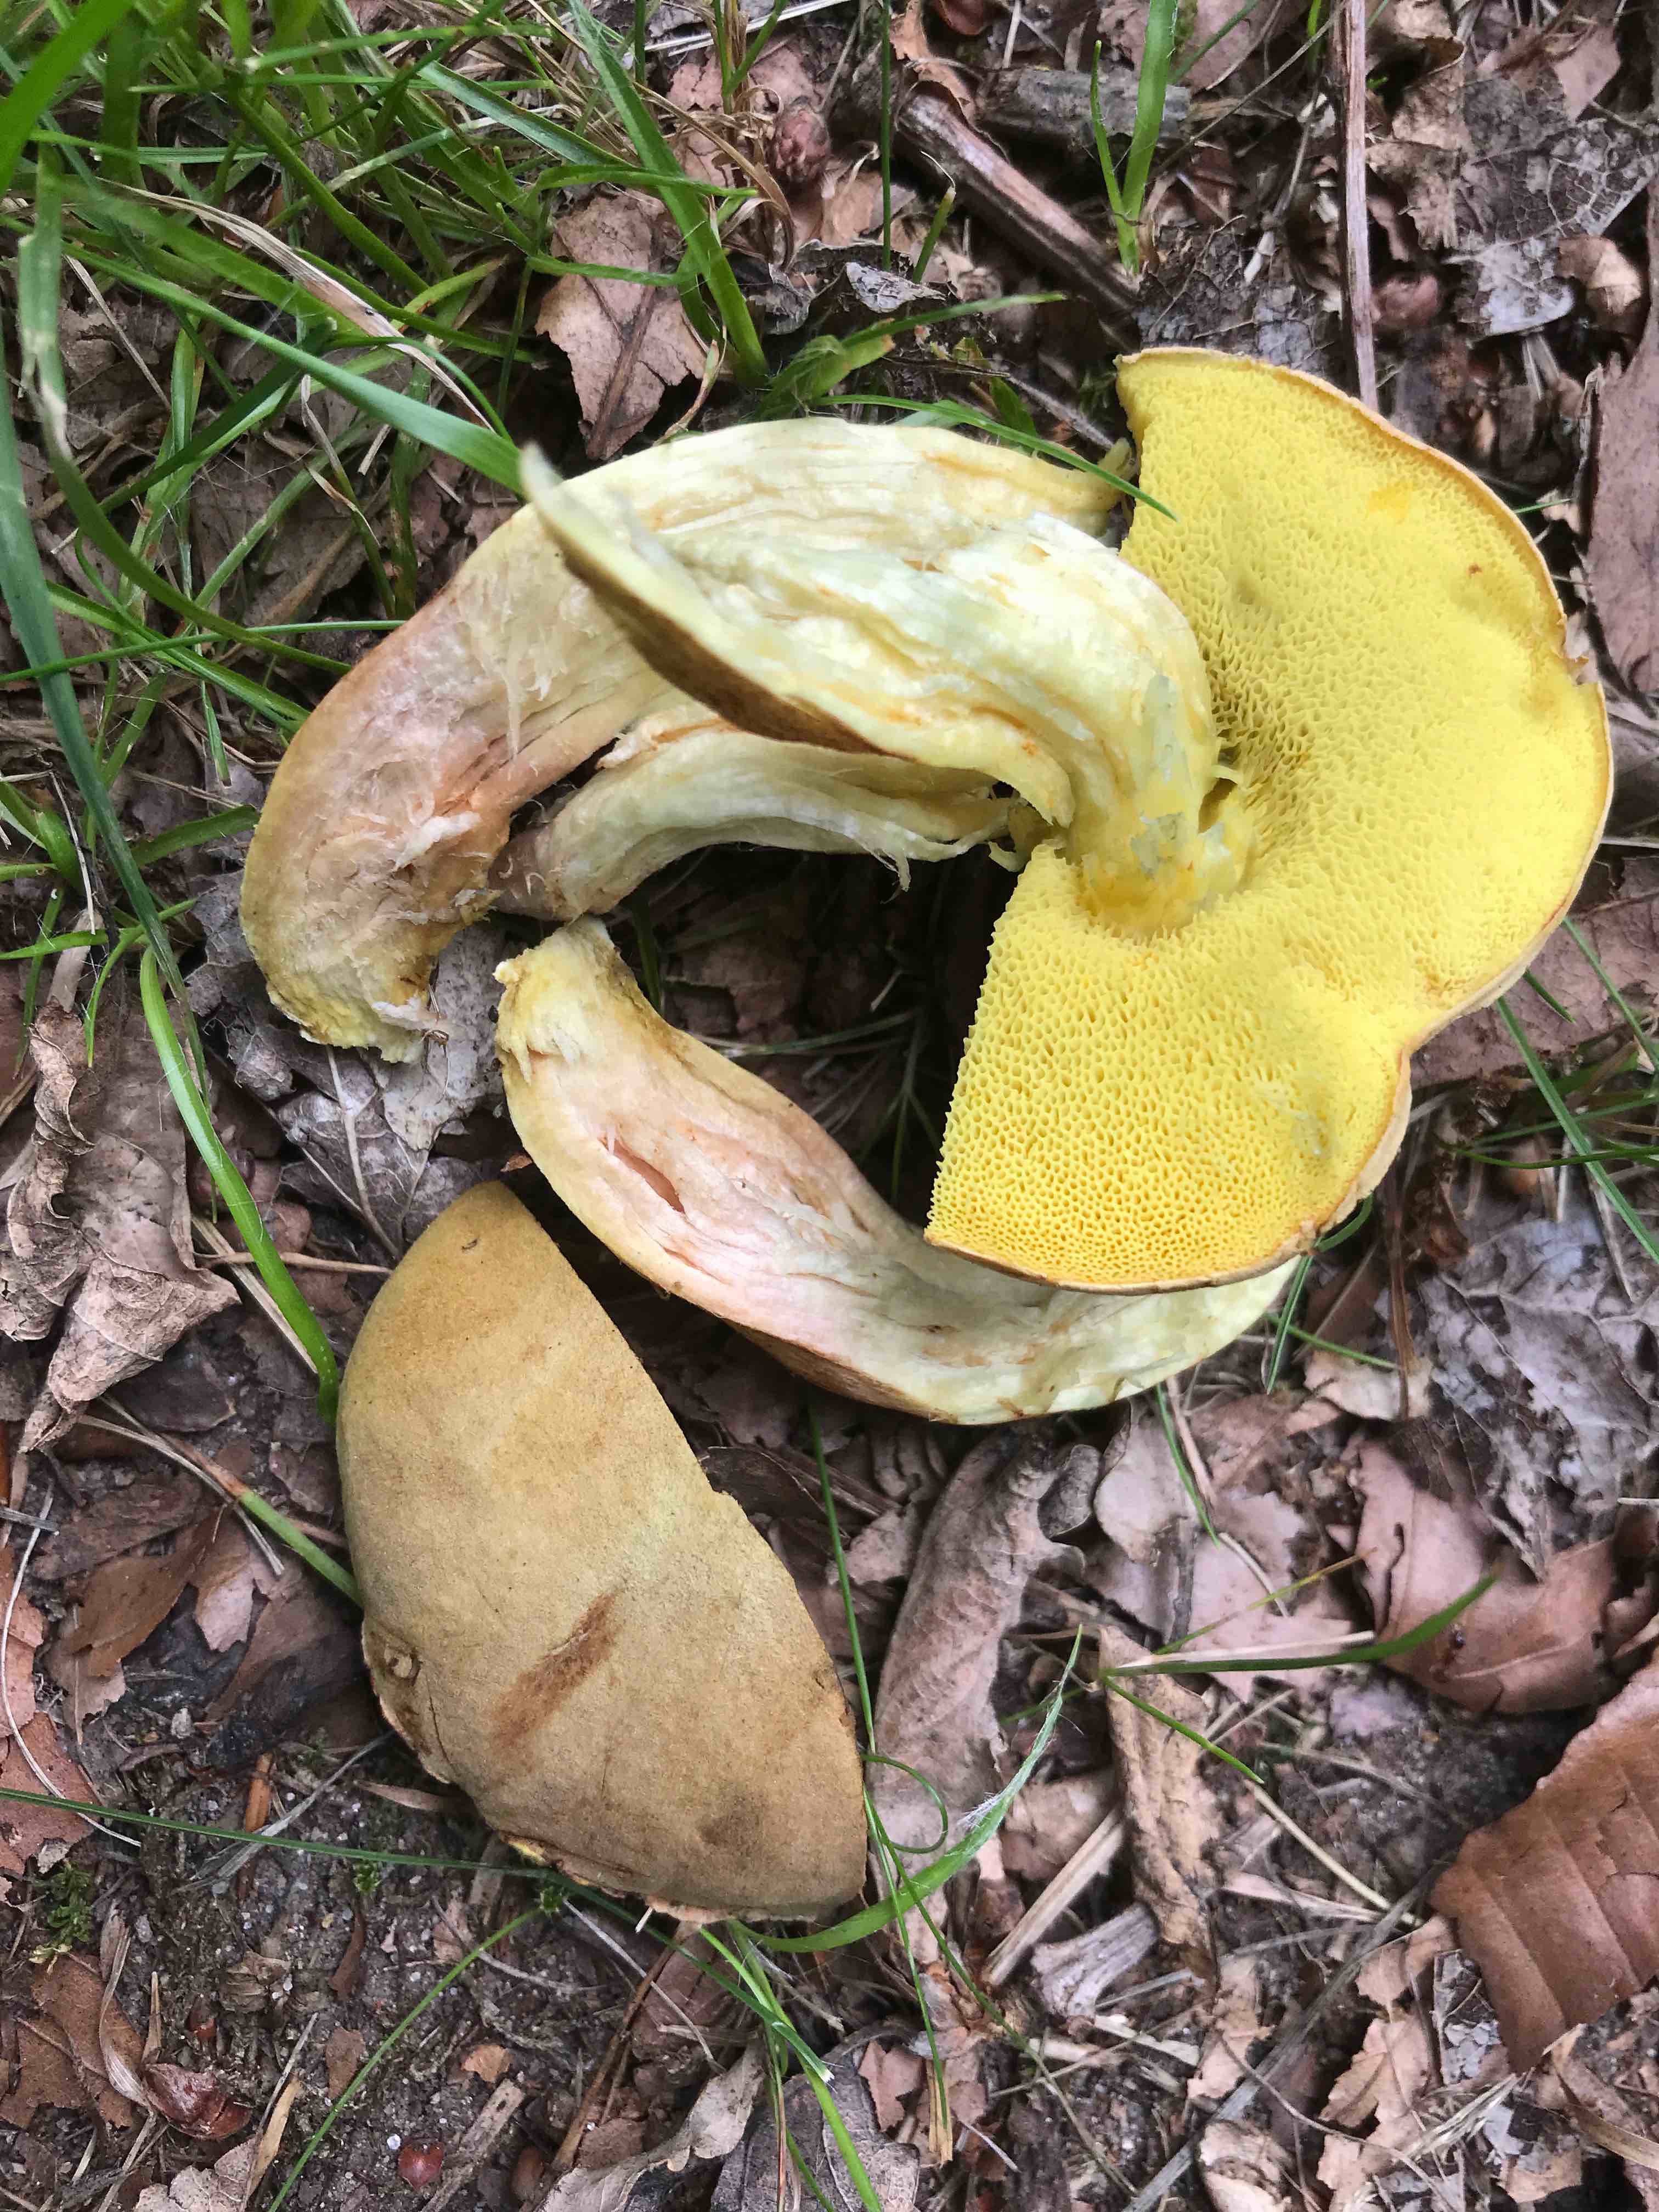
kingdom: Fungi
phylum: Basidiomycota
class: Agaricomycetes
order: Boletales
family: Boletaceae
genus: Xerocomus
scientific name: Xerocomus
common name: filtrørhat
